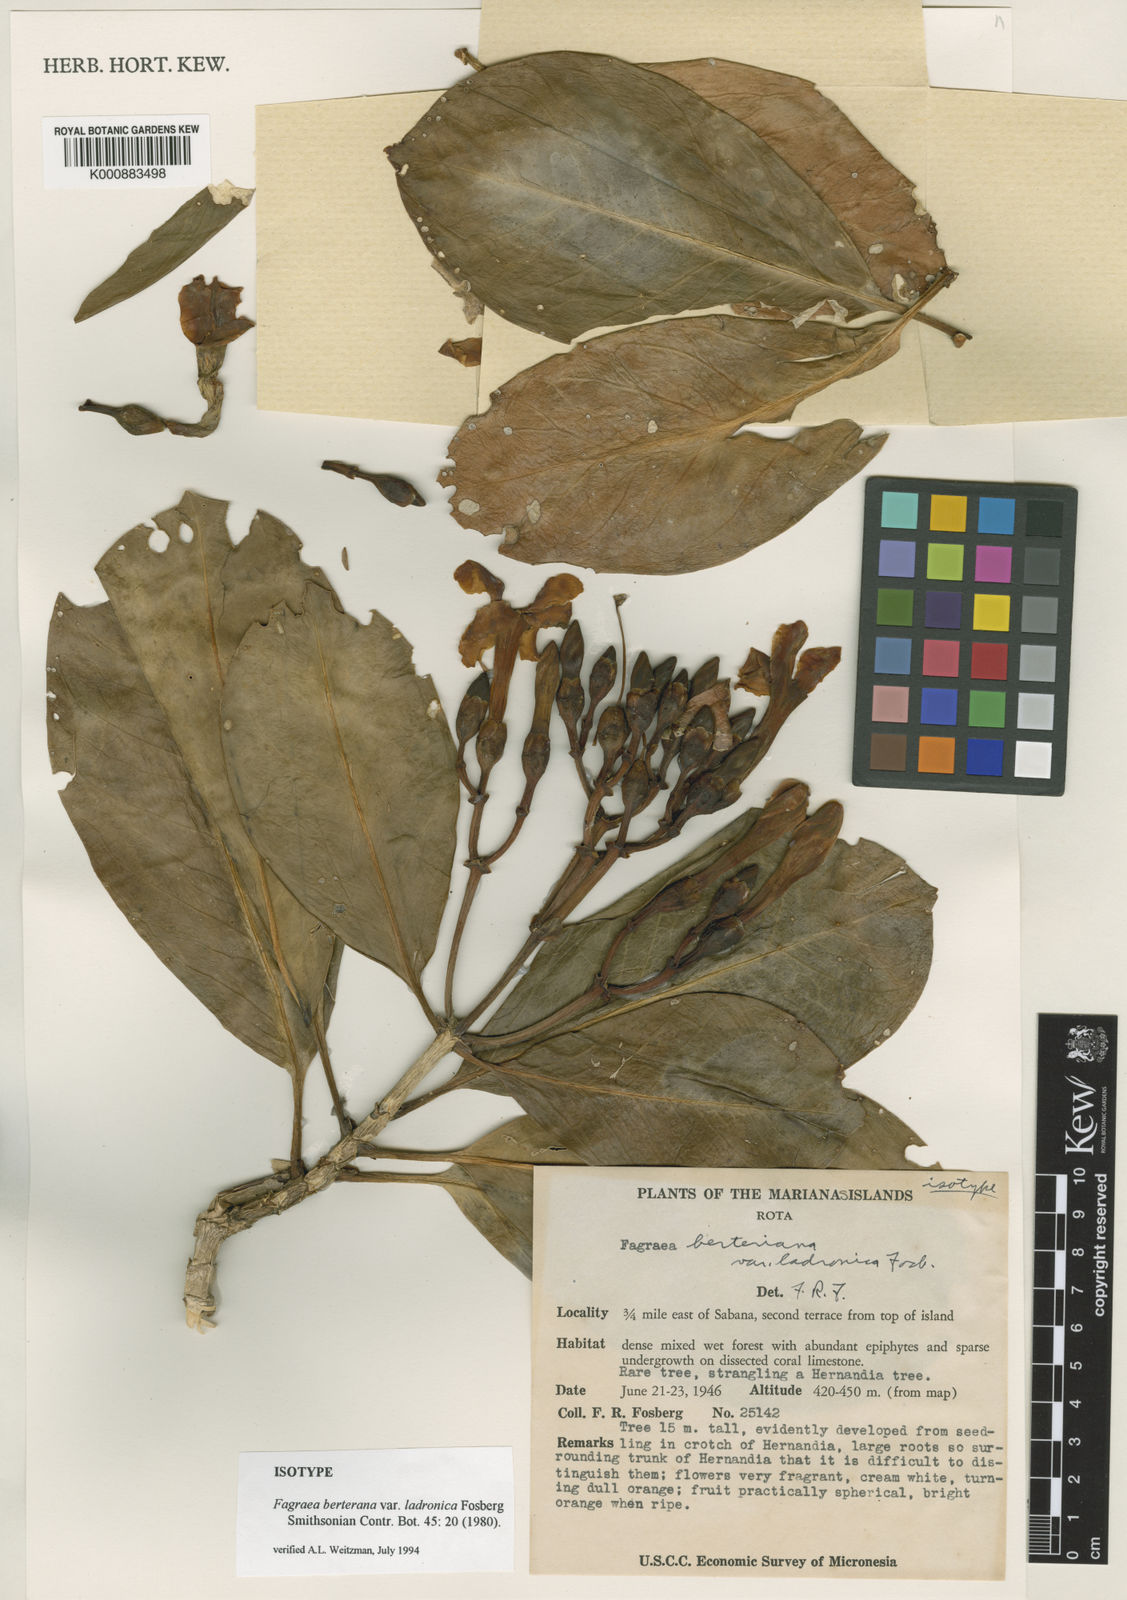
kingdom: Plantae
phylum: Tracheophyta
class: Magnoliopsida
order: Gentianales
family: Gentianaceae
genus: Fagraea
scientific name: Fagraea
